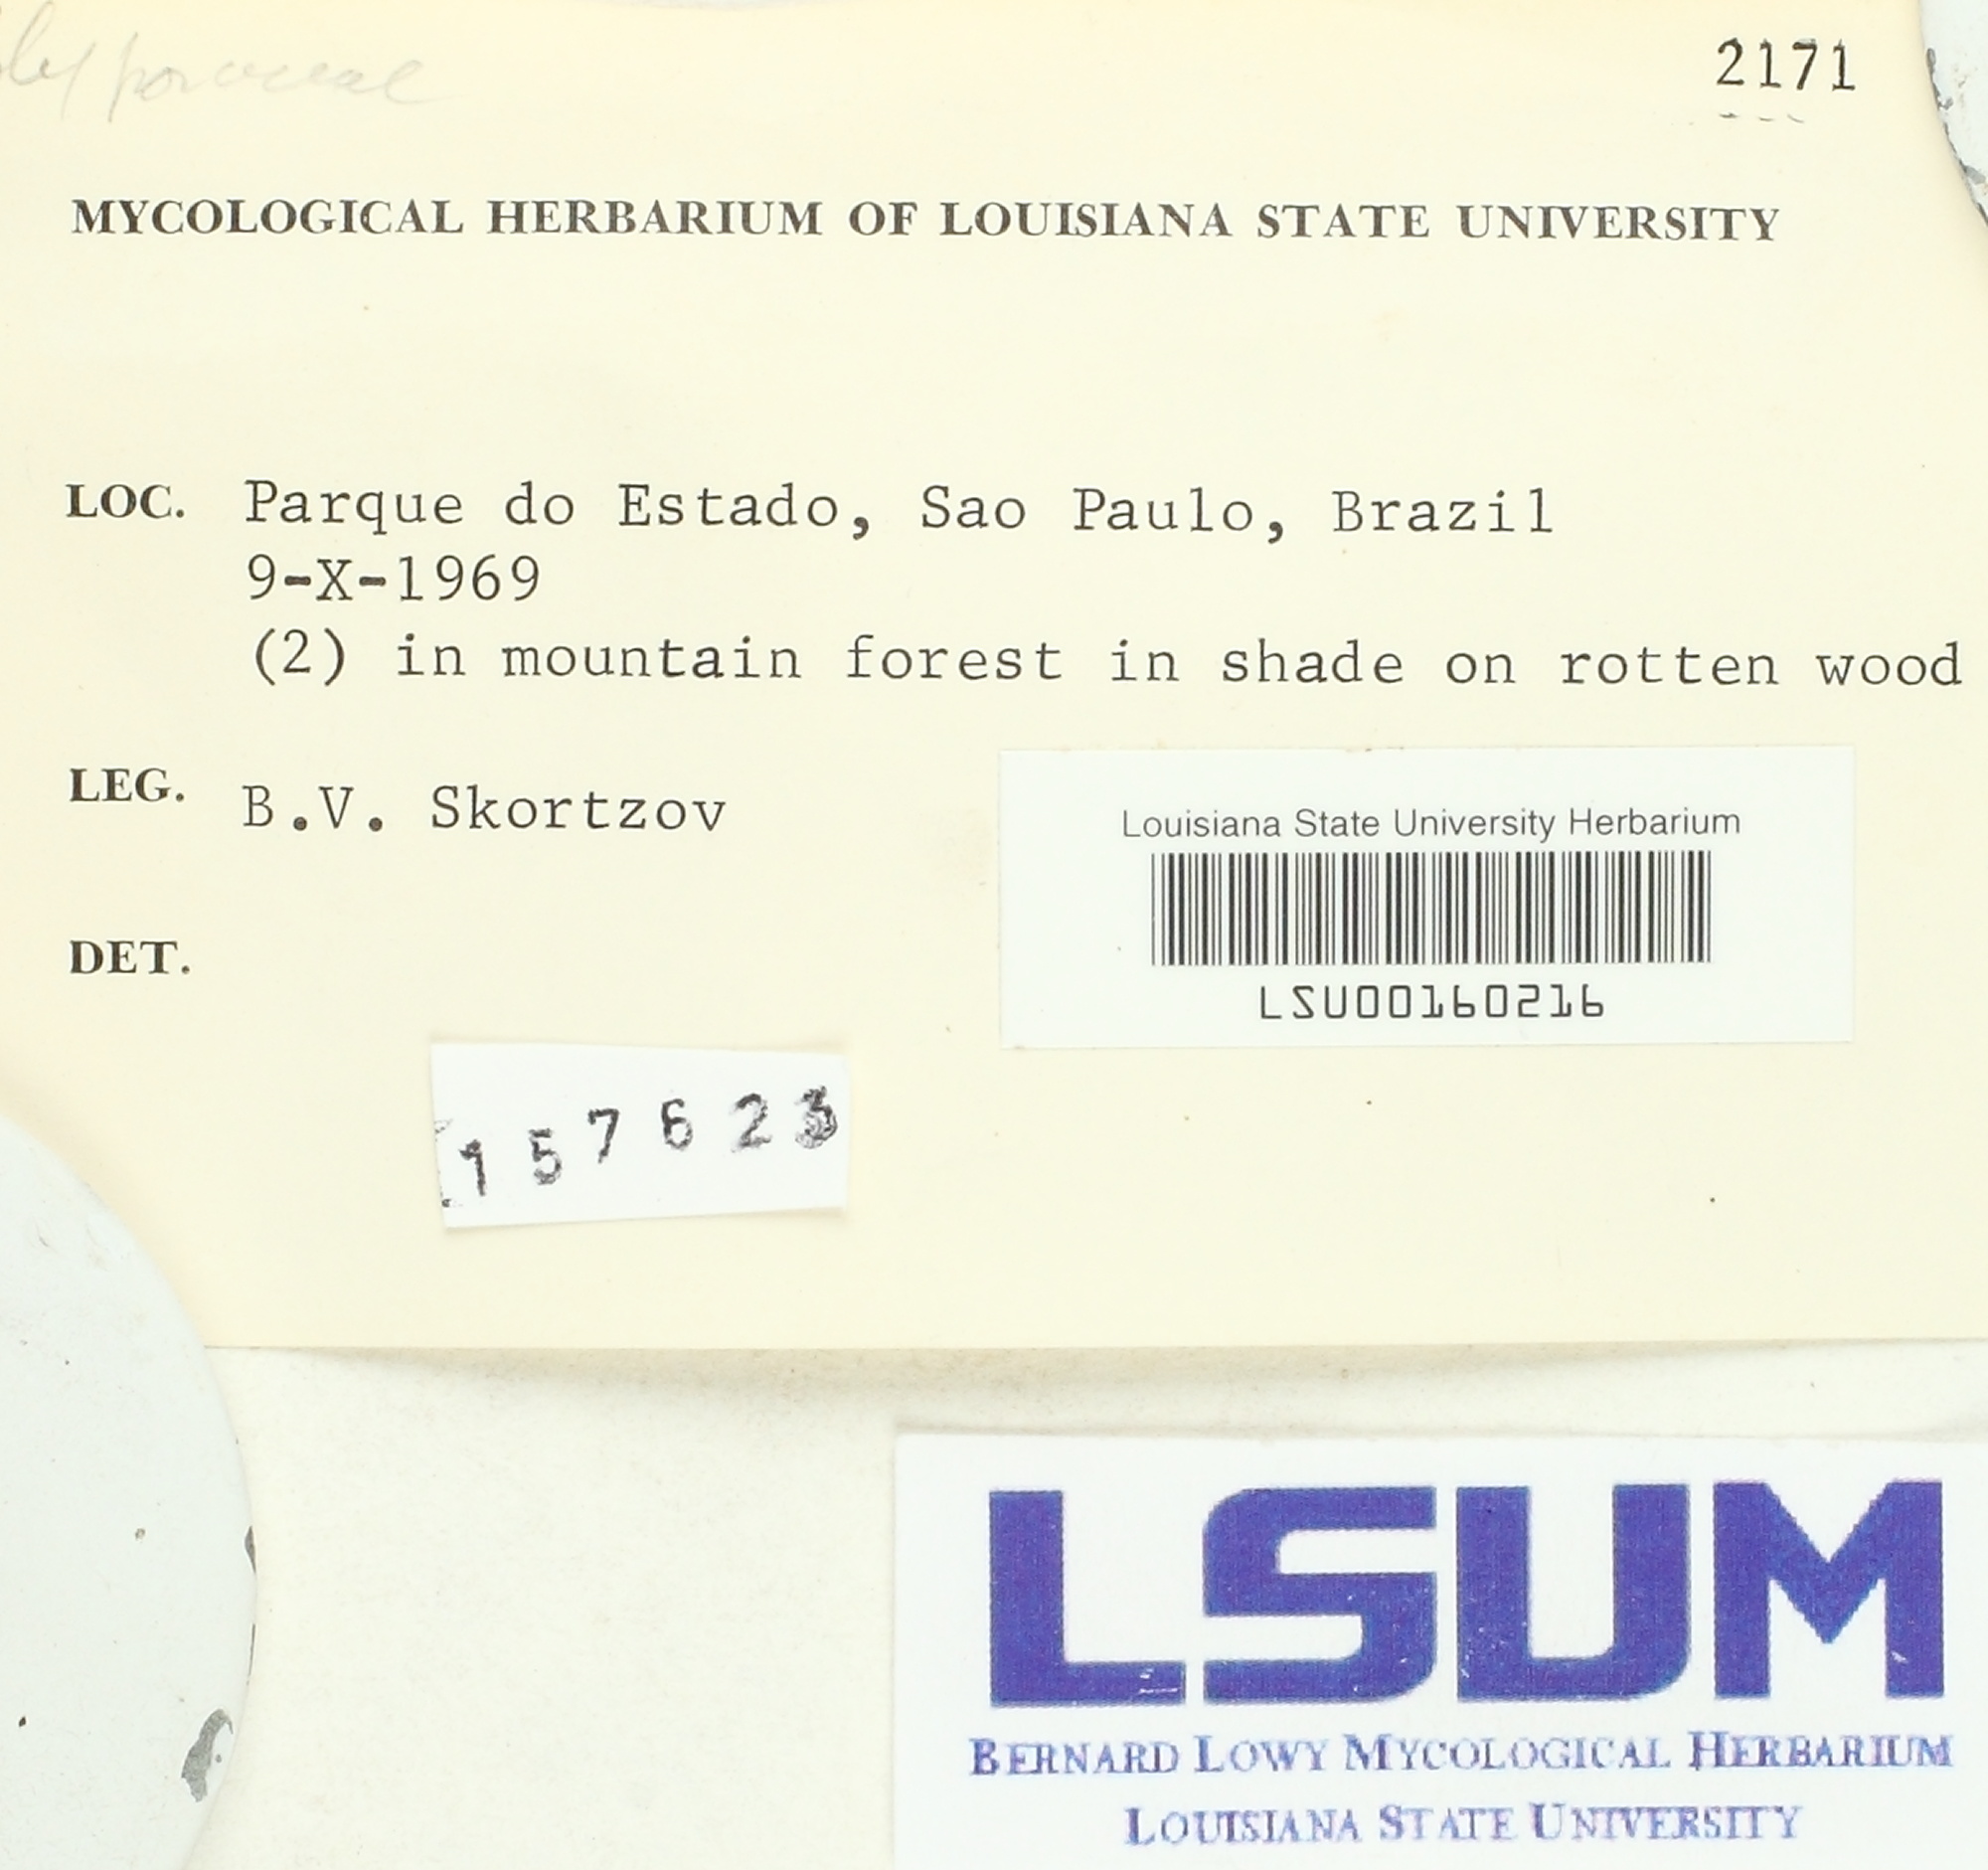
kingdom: Fungi
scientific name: Fungi
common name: Fungi
